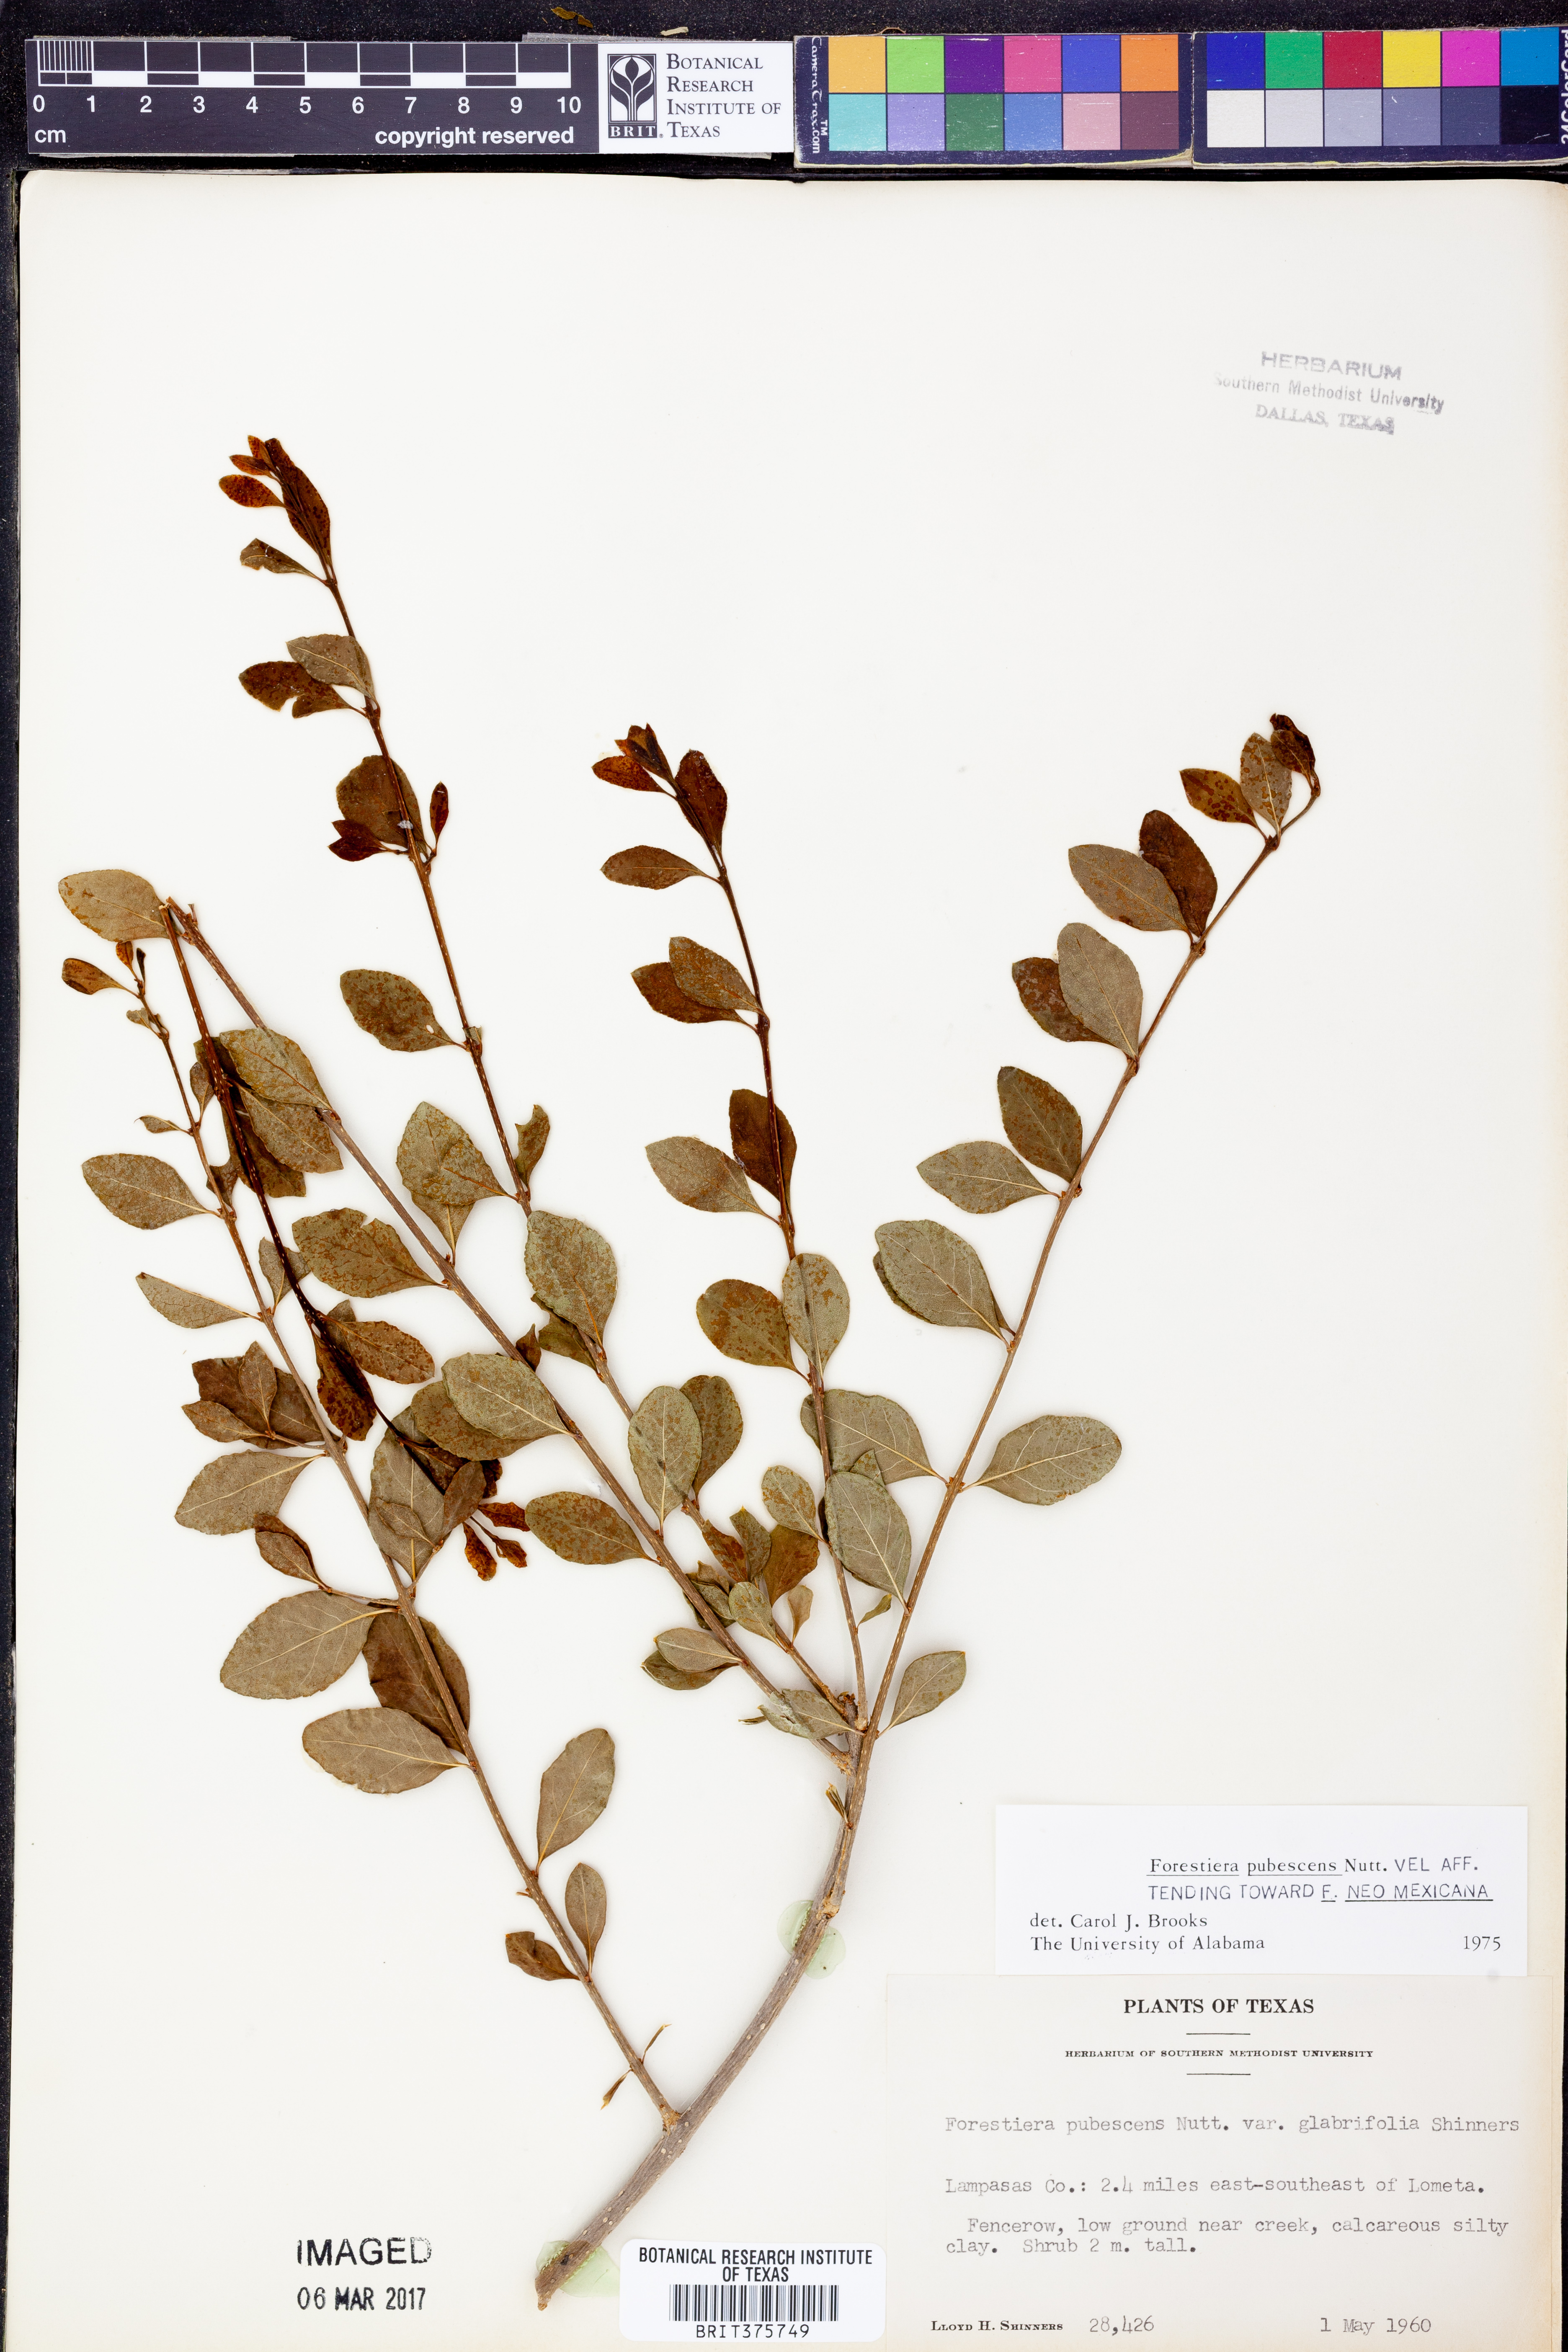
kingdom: Plantae
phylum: Tracheophyta
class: Magnoliopsida
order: Lamiales
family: Oleaceae
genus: Forestiera
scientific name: Forestiera pubescens
